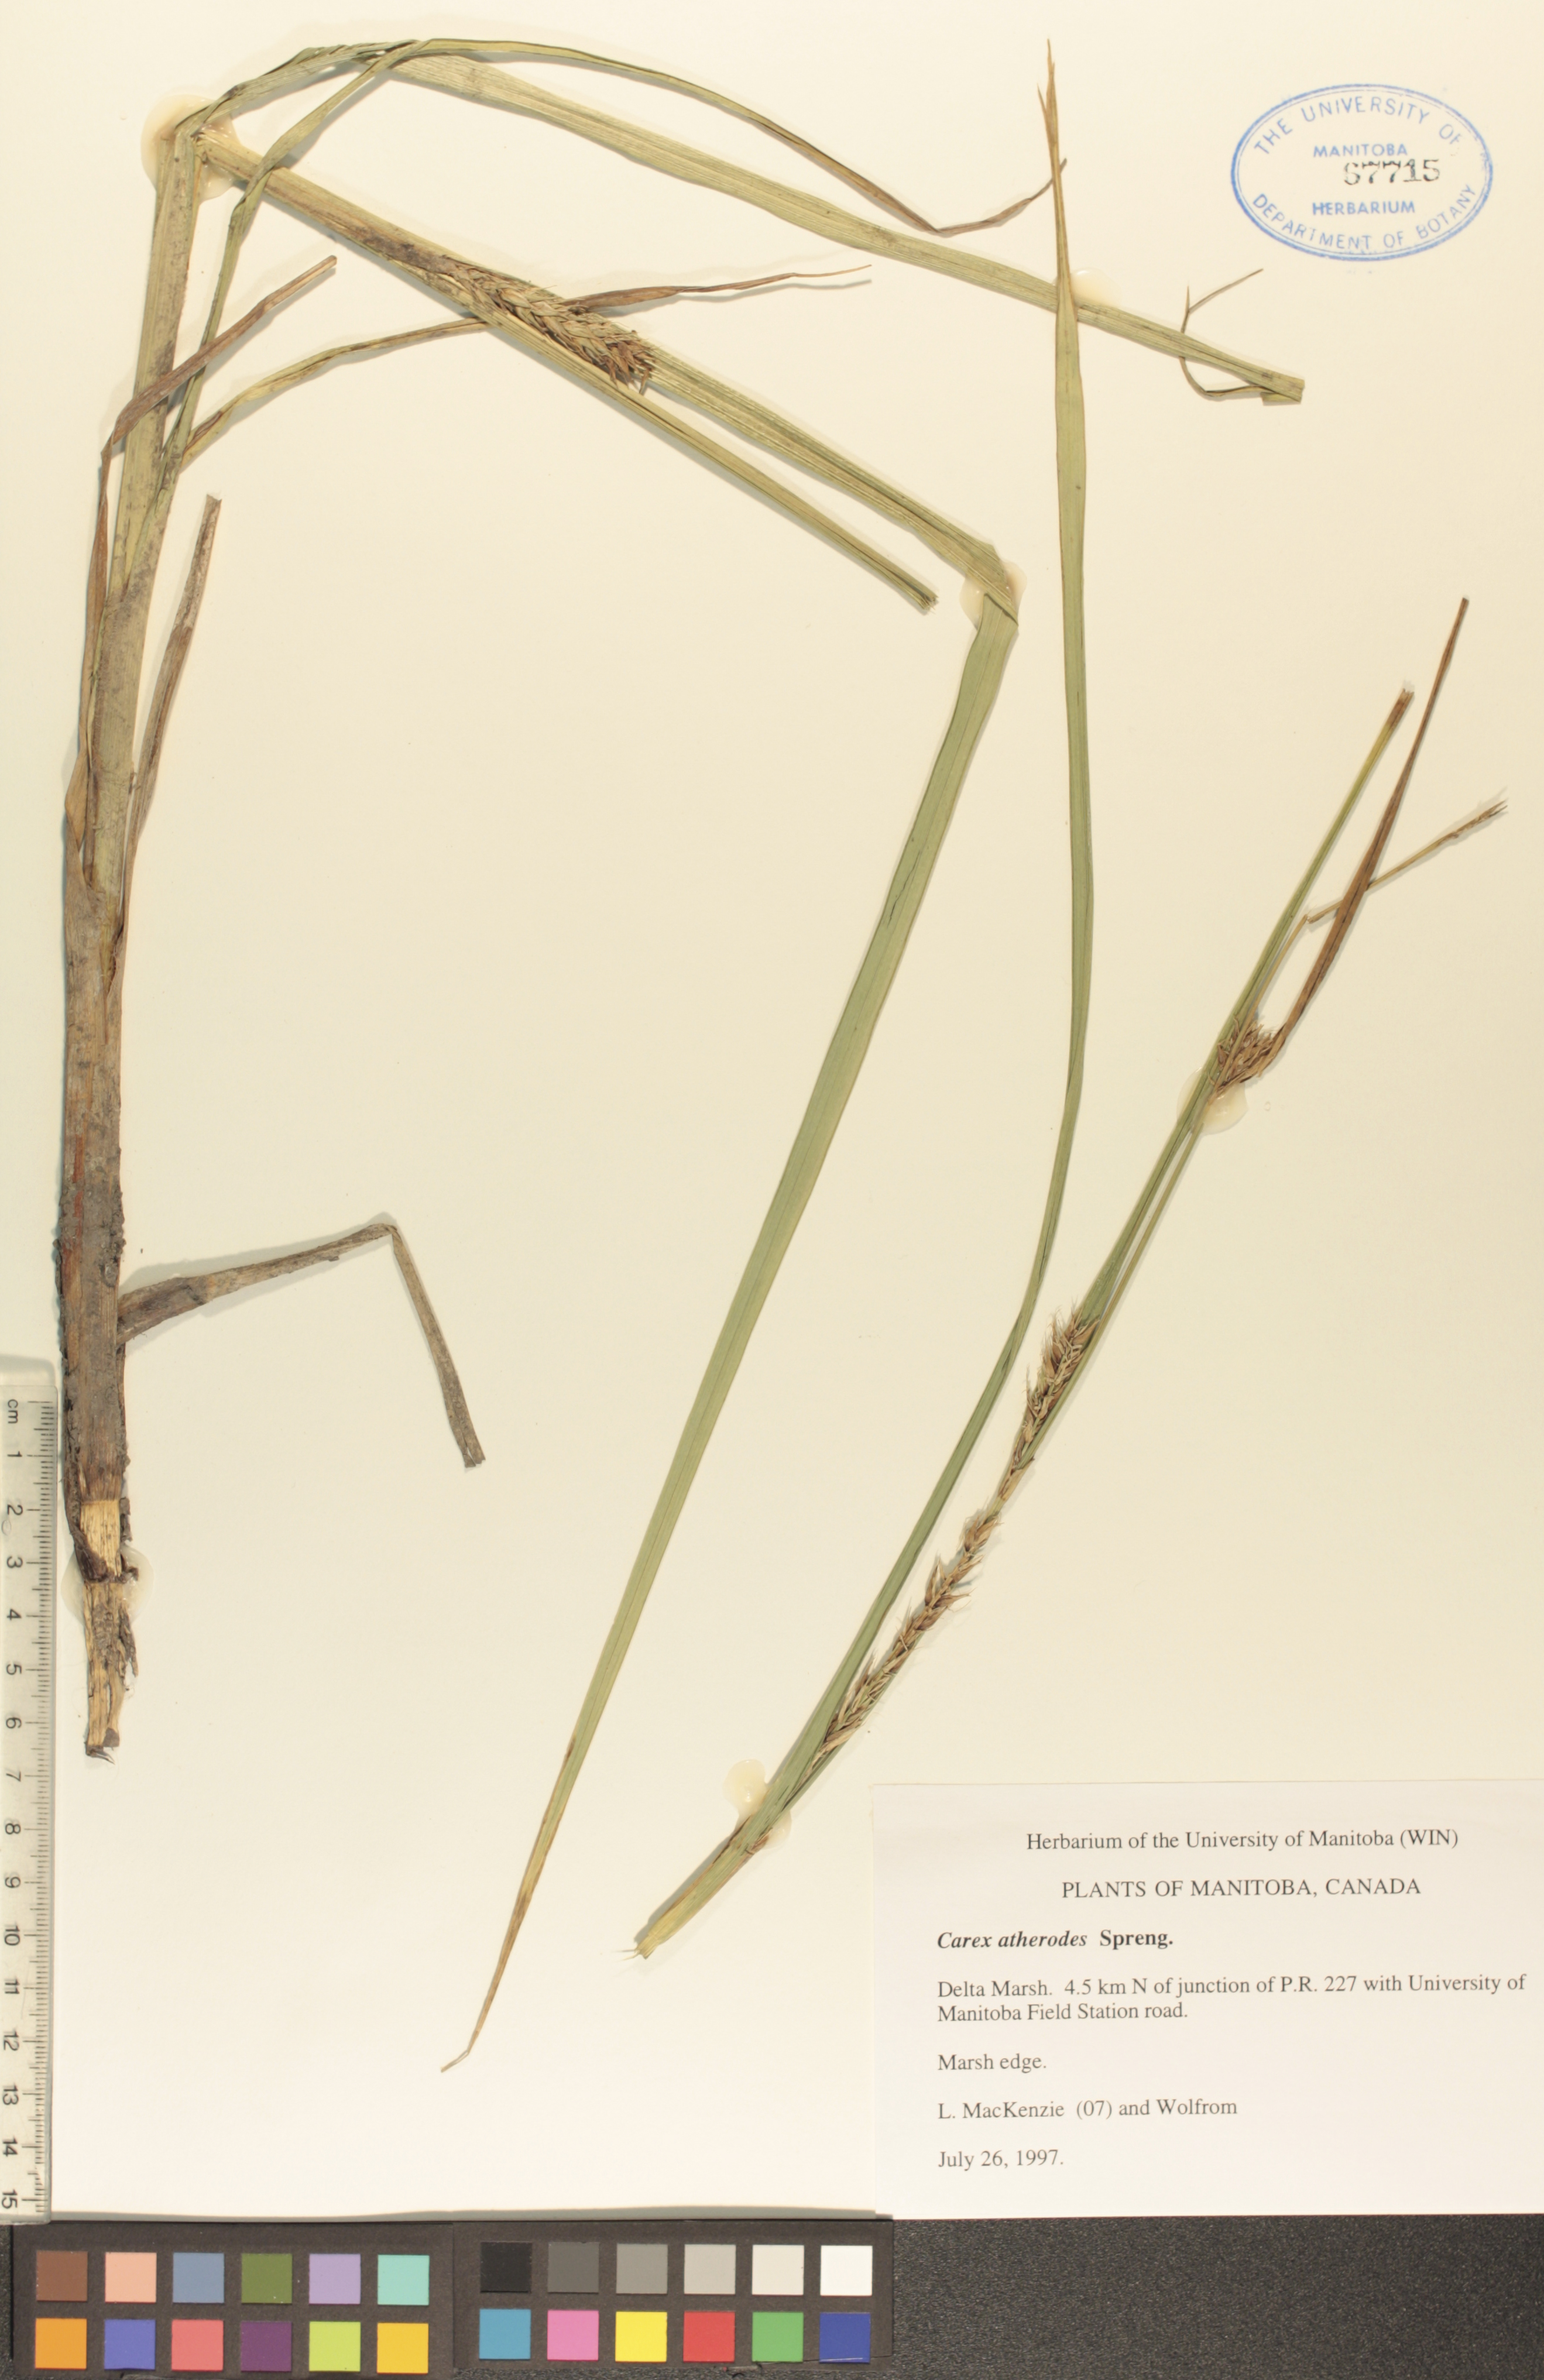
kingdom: Plantae
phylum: Tracheophyta
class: Liliopsida
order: Poales
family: Cyperaceae
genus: Carex
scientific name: Carex atherodes
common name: Wheat sedge
